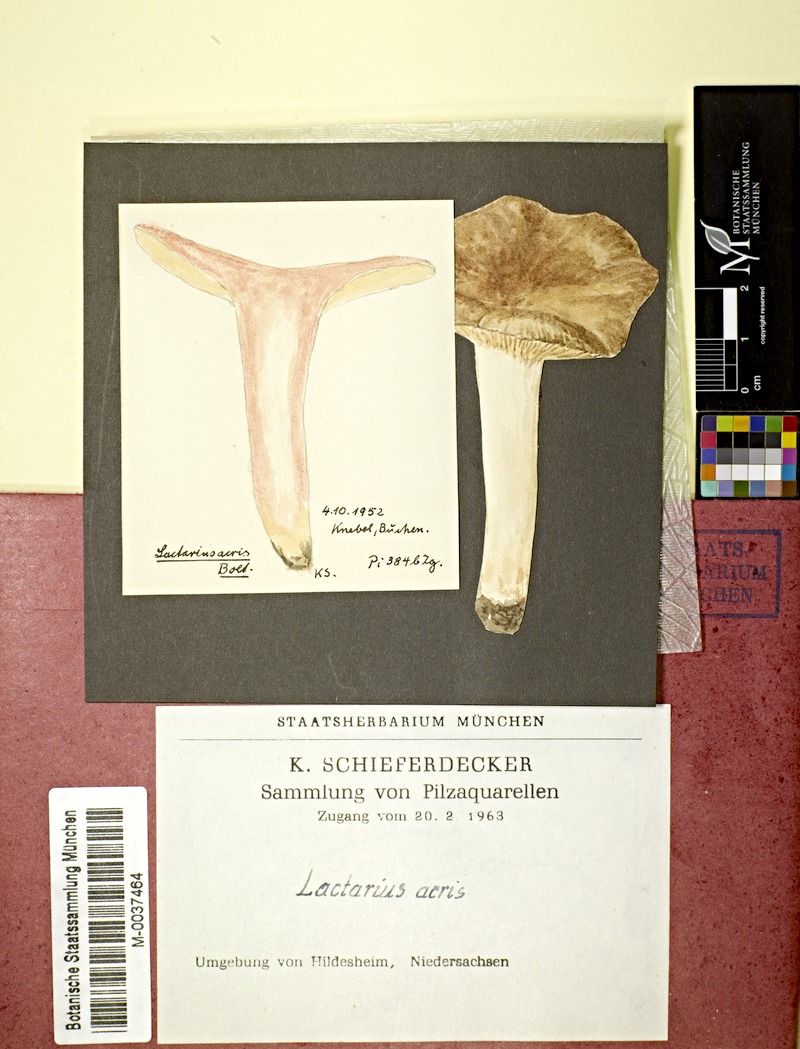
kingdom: Fungi
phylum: Basidiomycota
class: Agaricomycetes
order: Russulales
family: Russulaceae
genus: Lactarius
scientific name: Lactarius acris
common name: Raspberry milkcap
